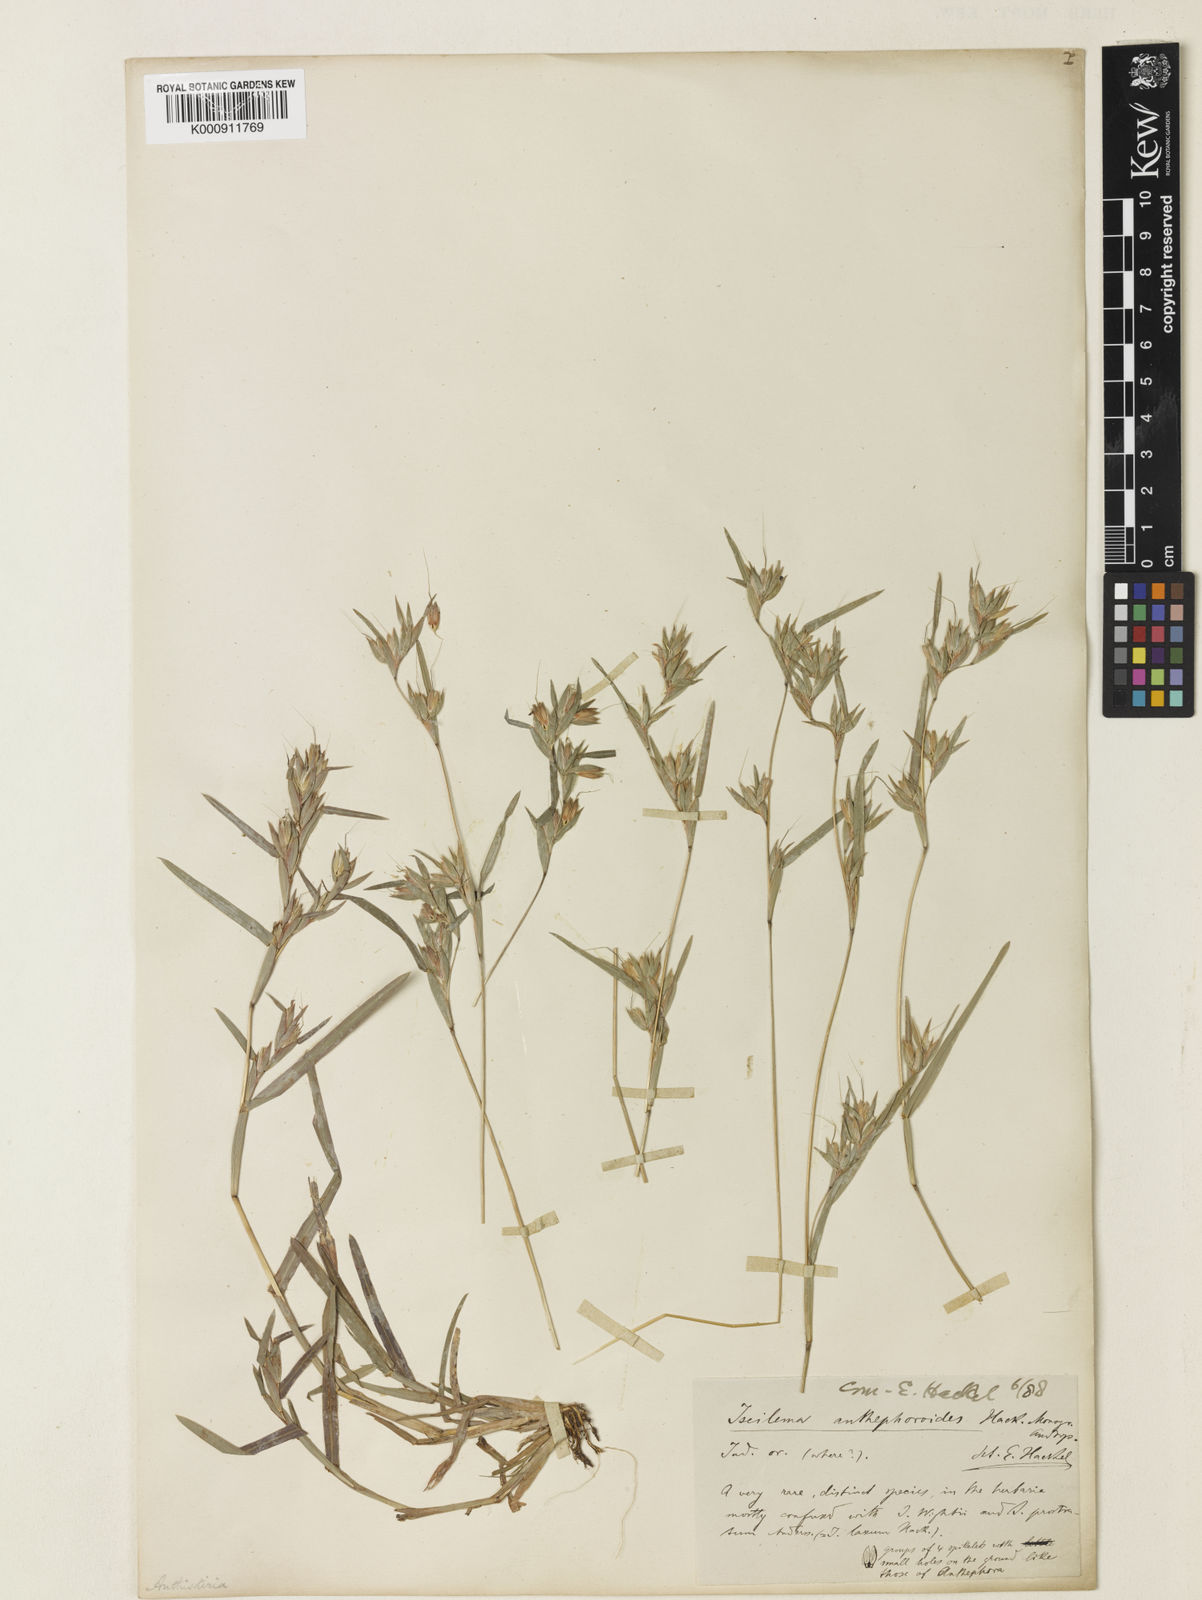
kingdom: Plantae
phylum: Tracheophyta
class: Liliopsida
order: Poales
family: Poaceae
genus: Iseilema
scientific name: Iseilema anthephoroides
